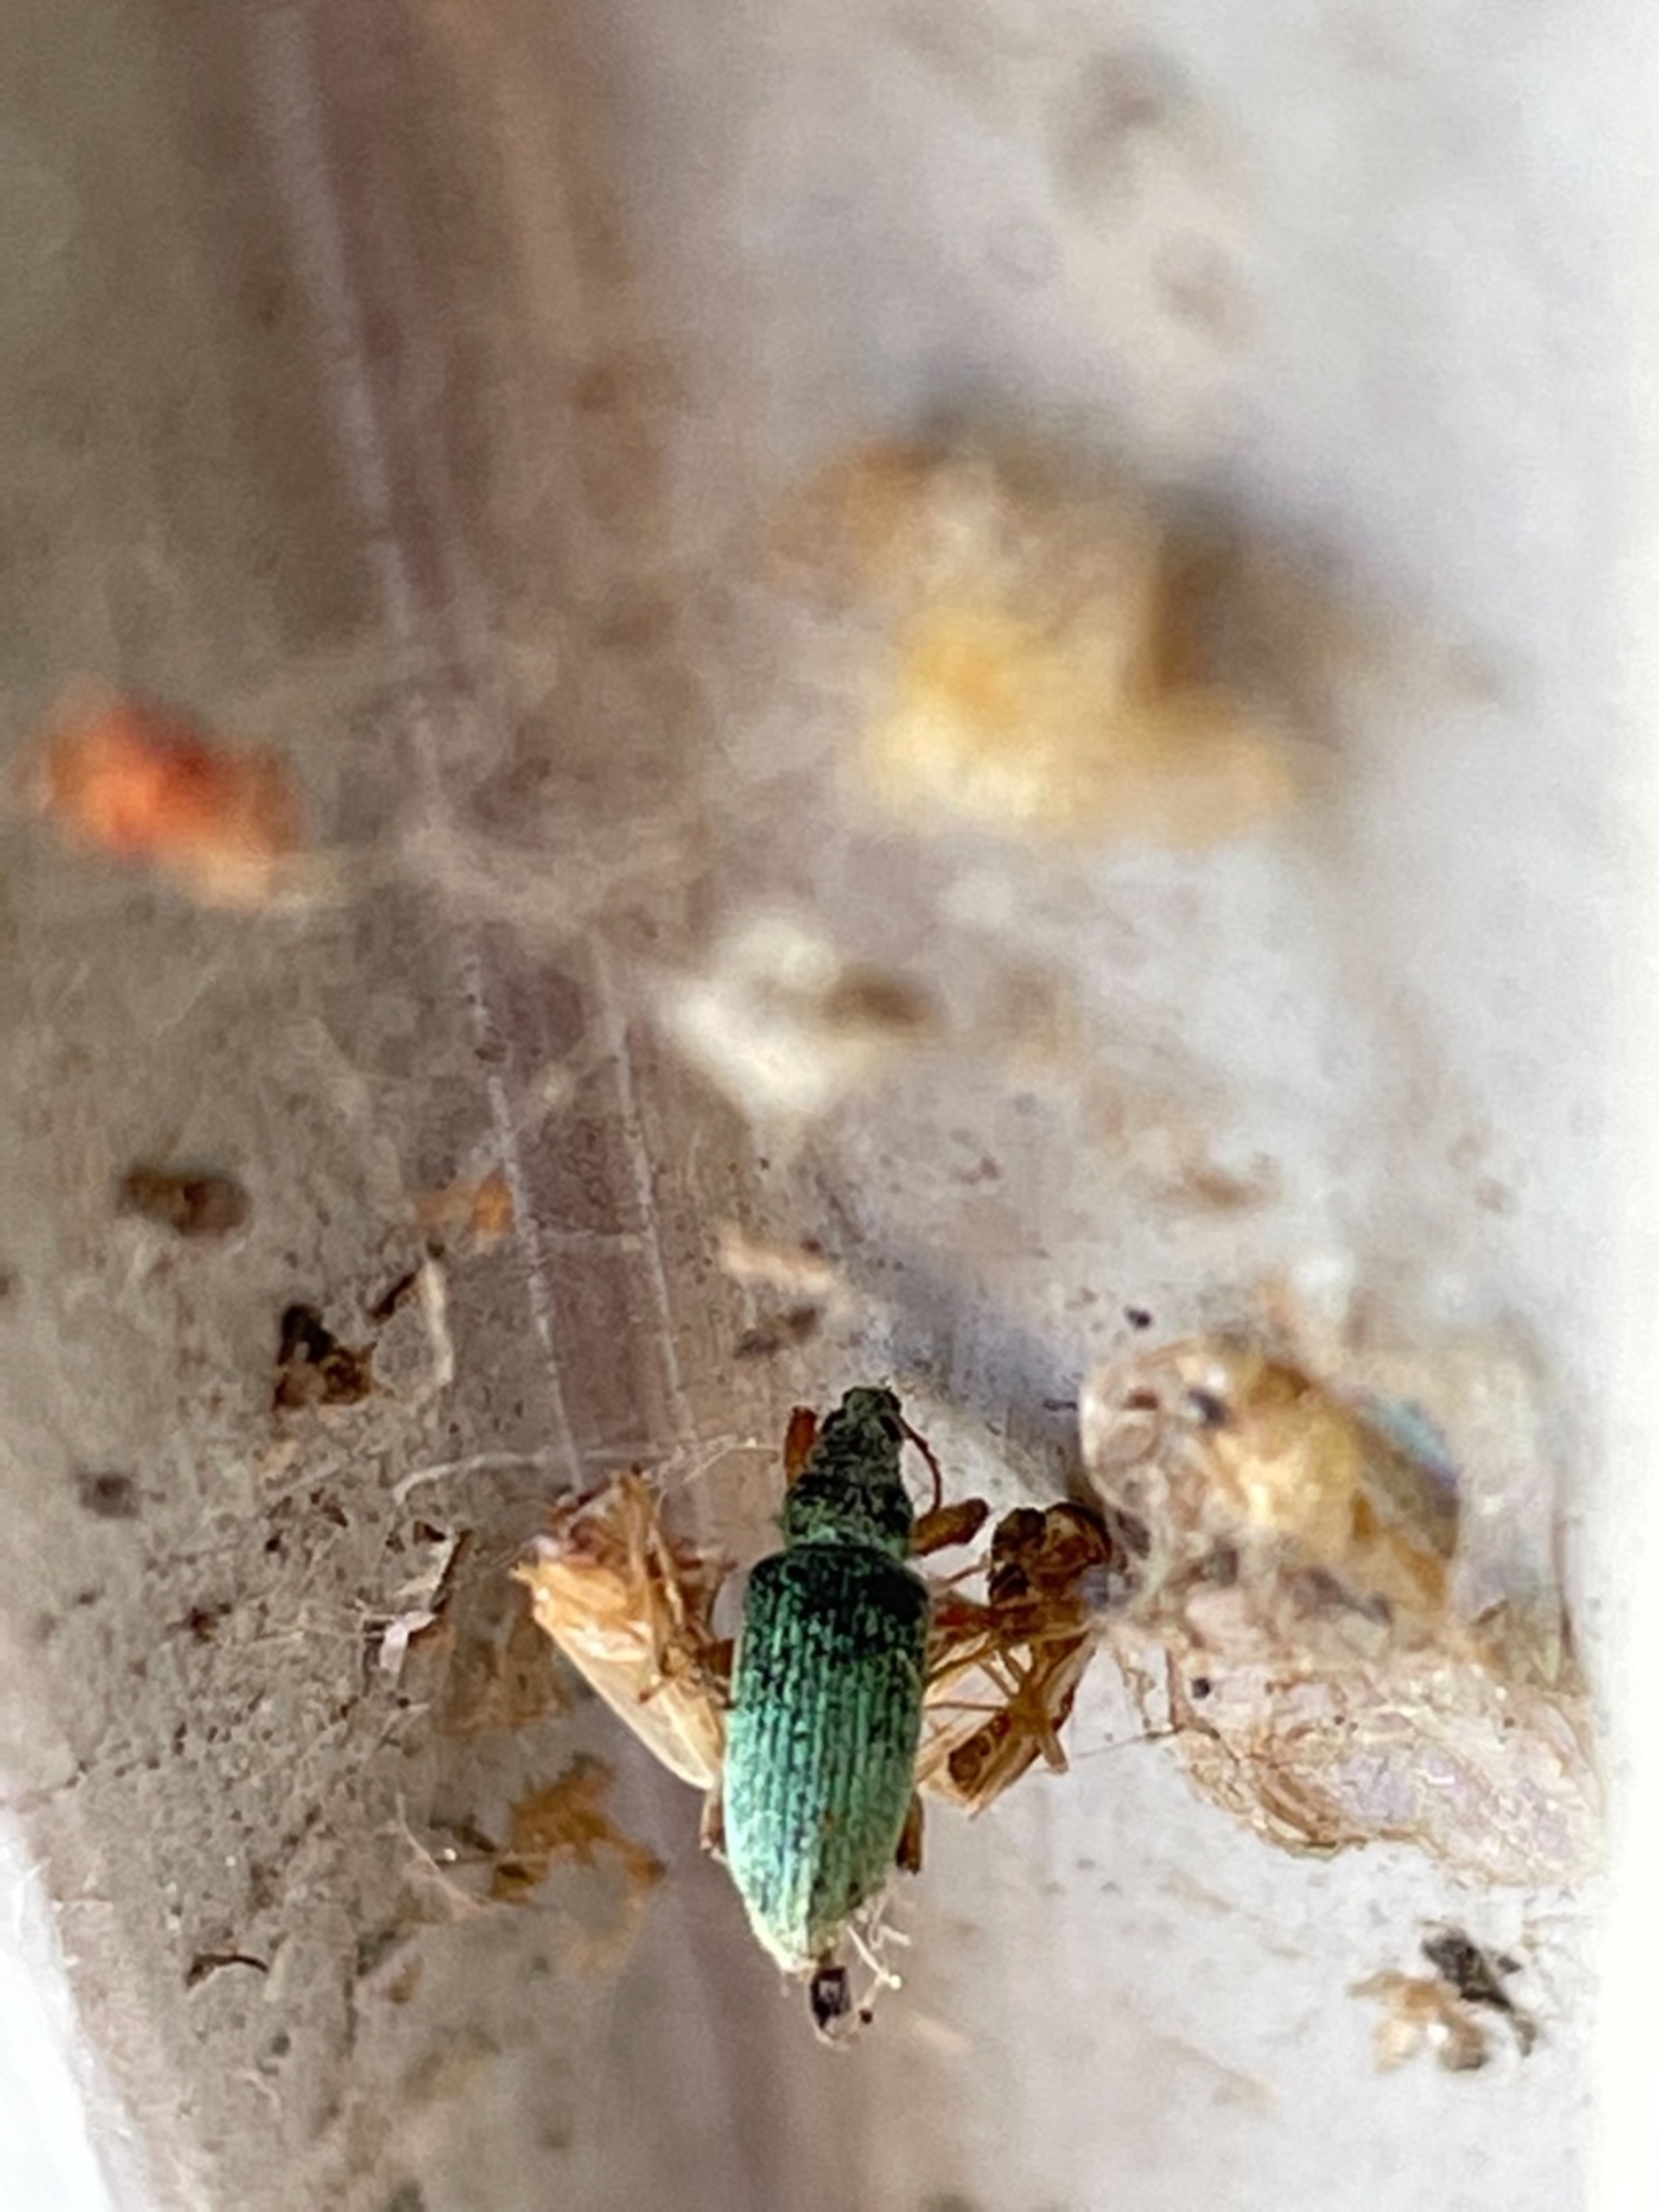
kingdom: Animalia
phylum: Arthropoda
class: Insecta
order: Coleoptera
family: Curculionidae
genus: Polydrusus
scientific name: Polydrusus formosus
